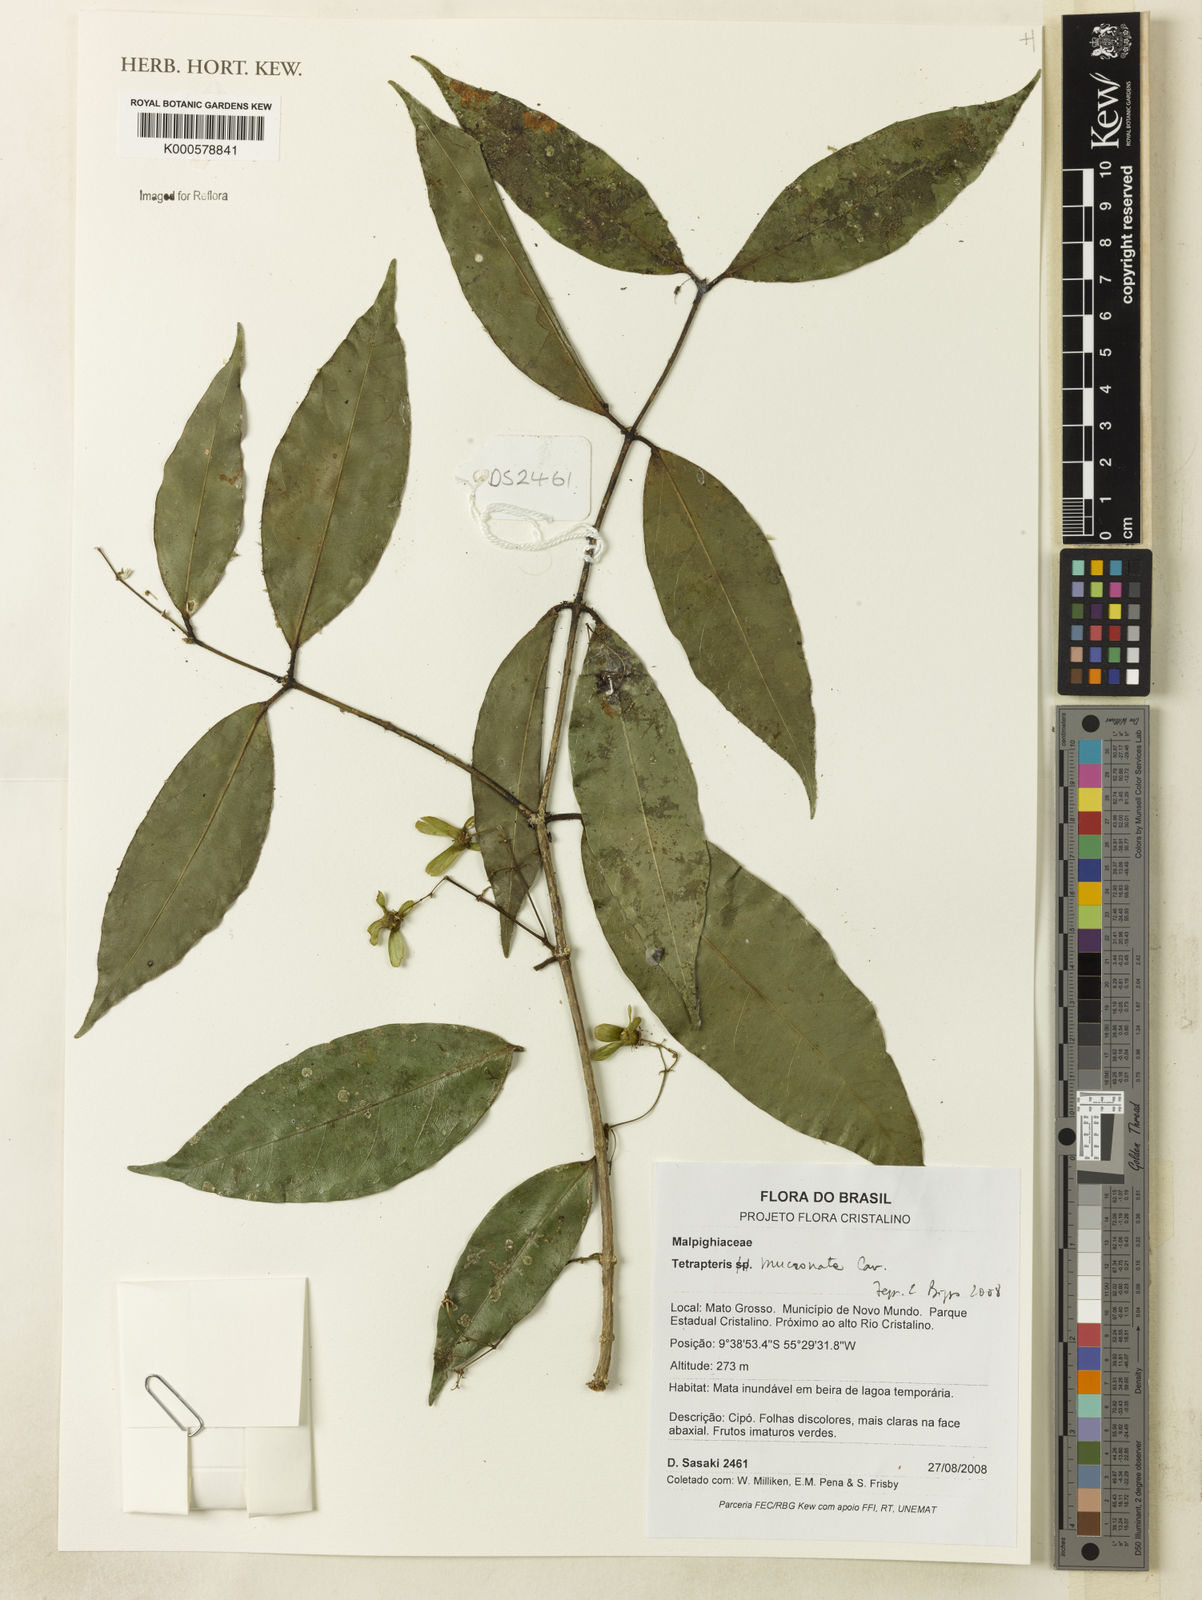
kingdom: Plantae
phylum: Tracheophyta
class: Magnoliopsida
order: Malpighiales
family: Malpighiaceae
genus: Tetrapterys
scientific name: Tetrapterys mucronata
